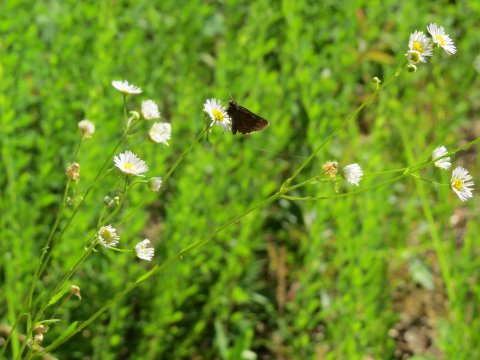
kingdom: Animalia
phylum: Arthropoda
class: Insecta
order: Lepidoptera
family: Hesperiidae
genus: Lerema
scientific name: Lerema accius
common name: Clouded Skipper
